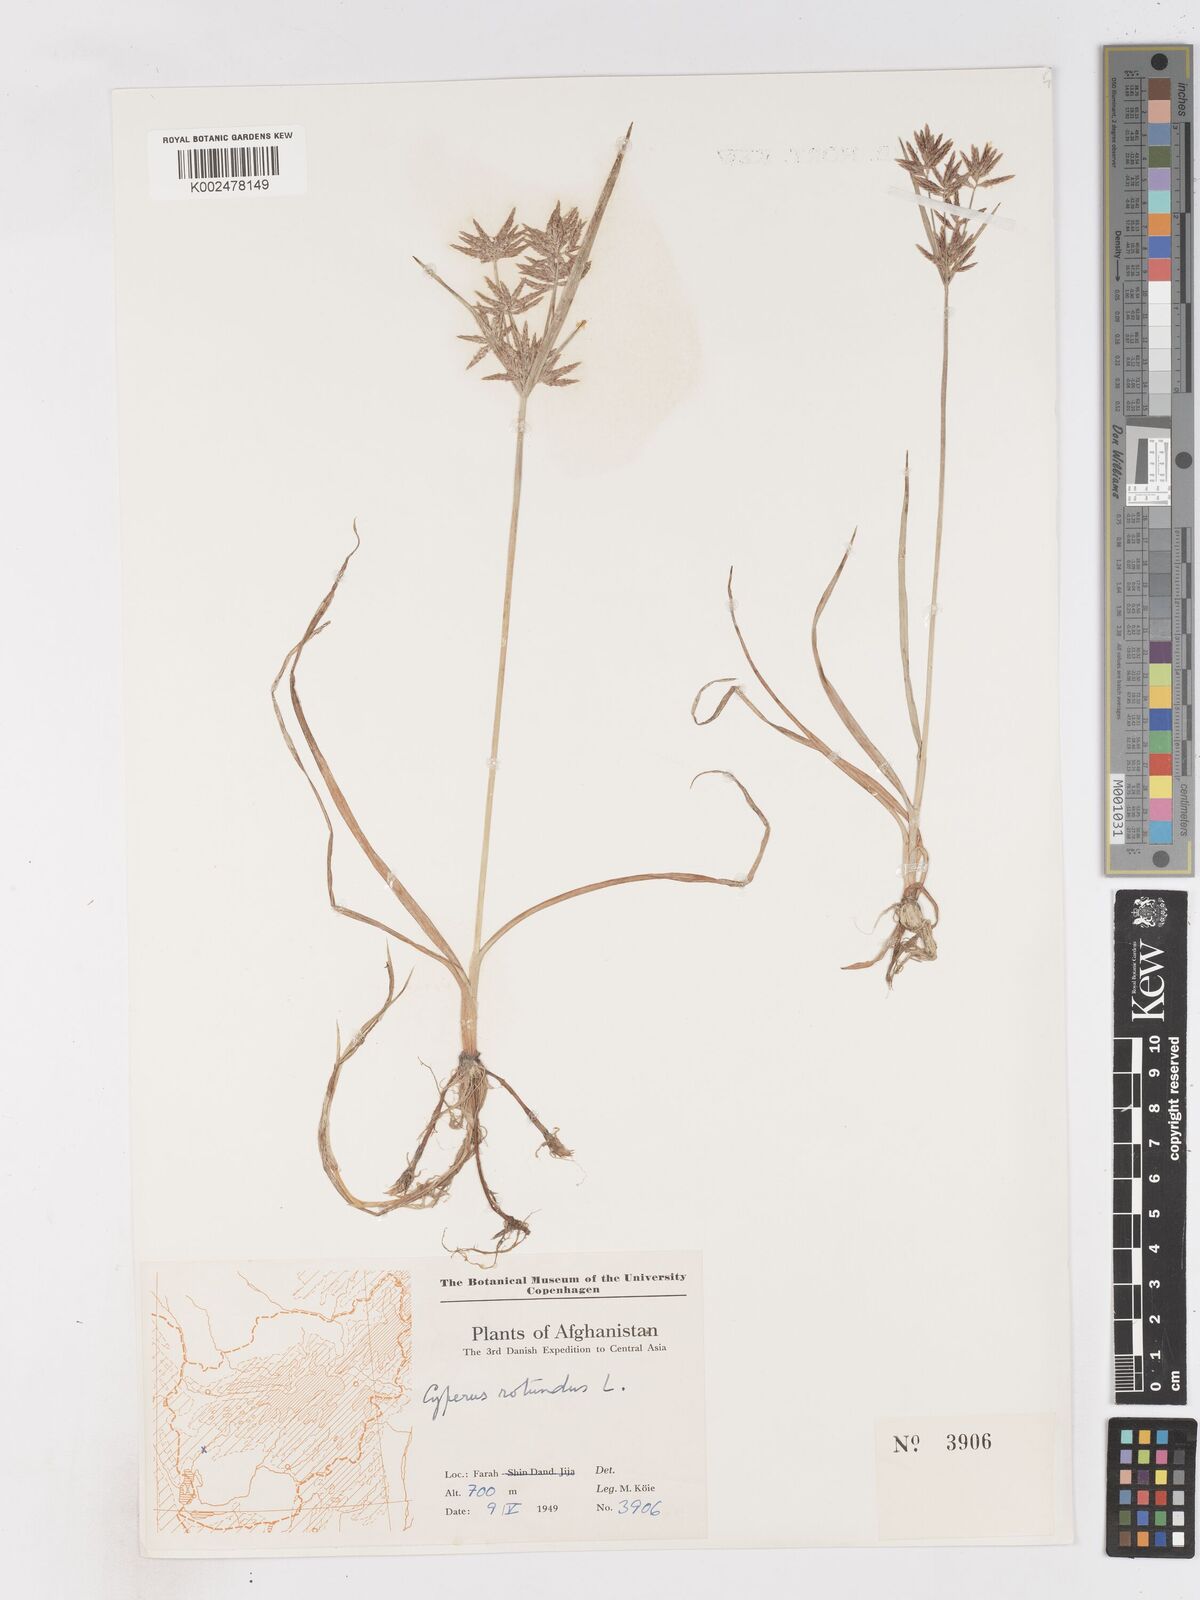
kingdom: Plantae
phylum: Tracheophyta
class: Liliopsida
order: Poales
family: Cyperaceae
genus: Cyperus
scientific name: Cyperus rotundus
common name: Nutgrass
